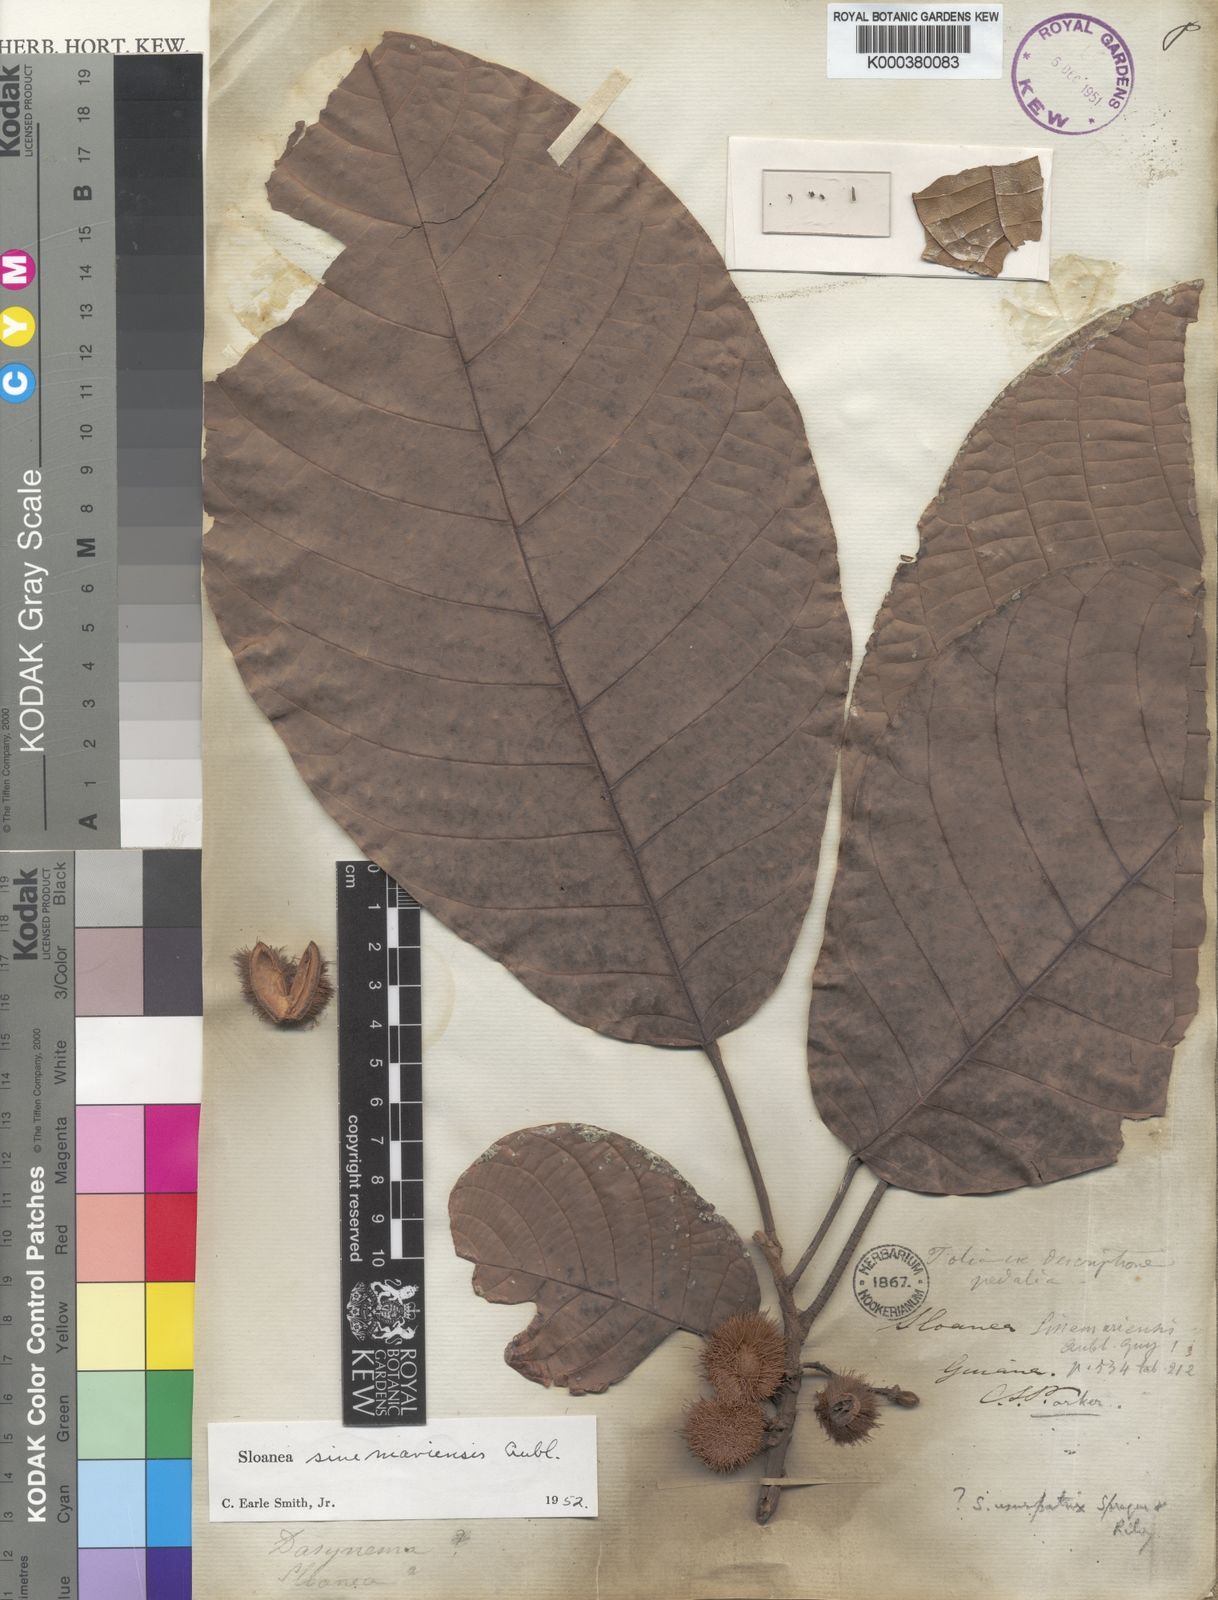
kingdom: Plantae
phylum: Tracheophyta
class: Magnoliopsida
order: Oxalidales
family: Elaeocarpaceae
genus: Sloanea
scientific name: Sloanea sinemariensis
